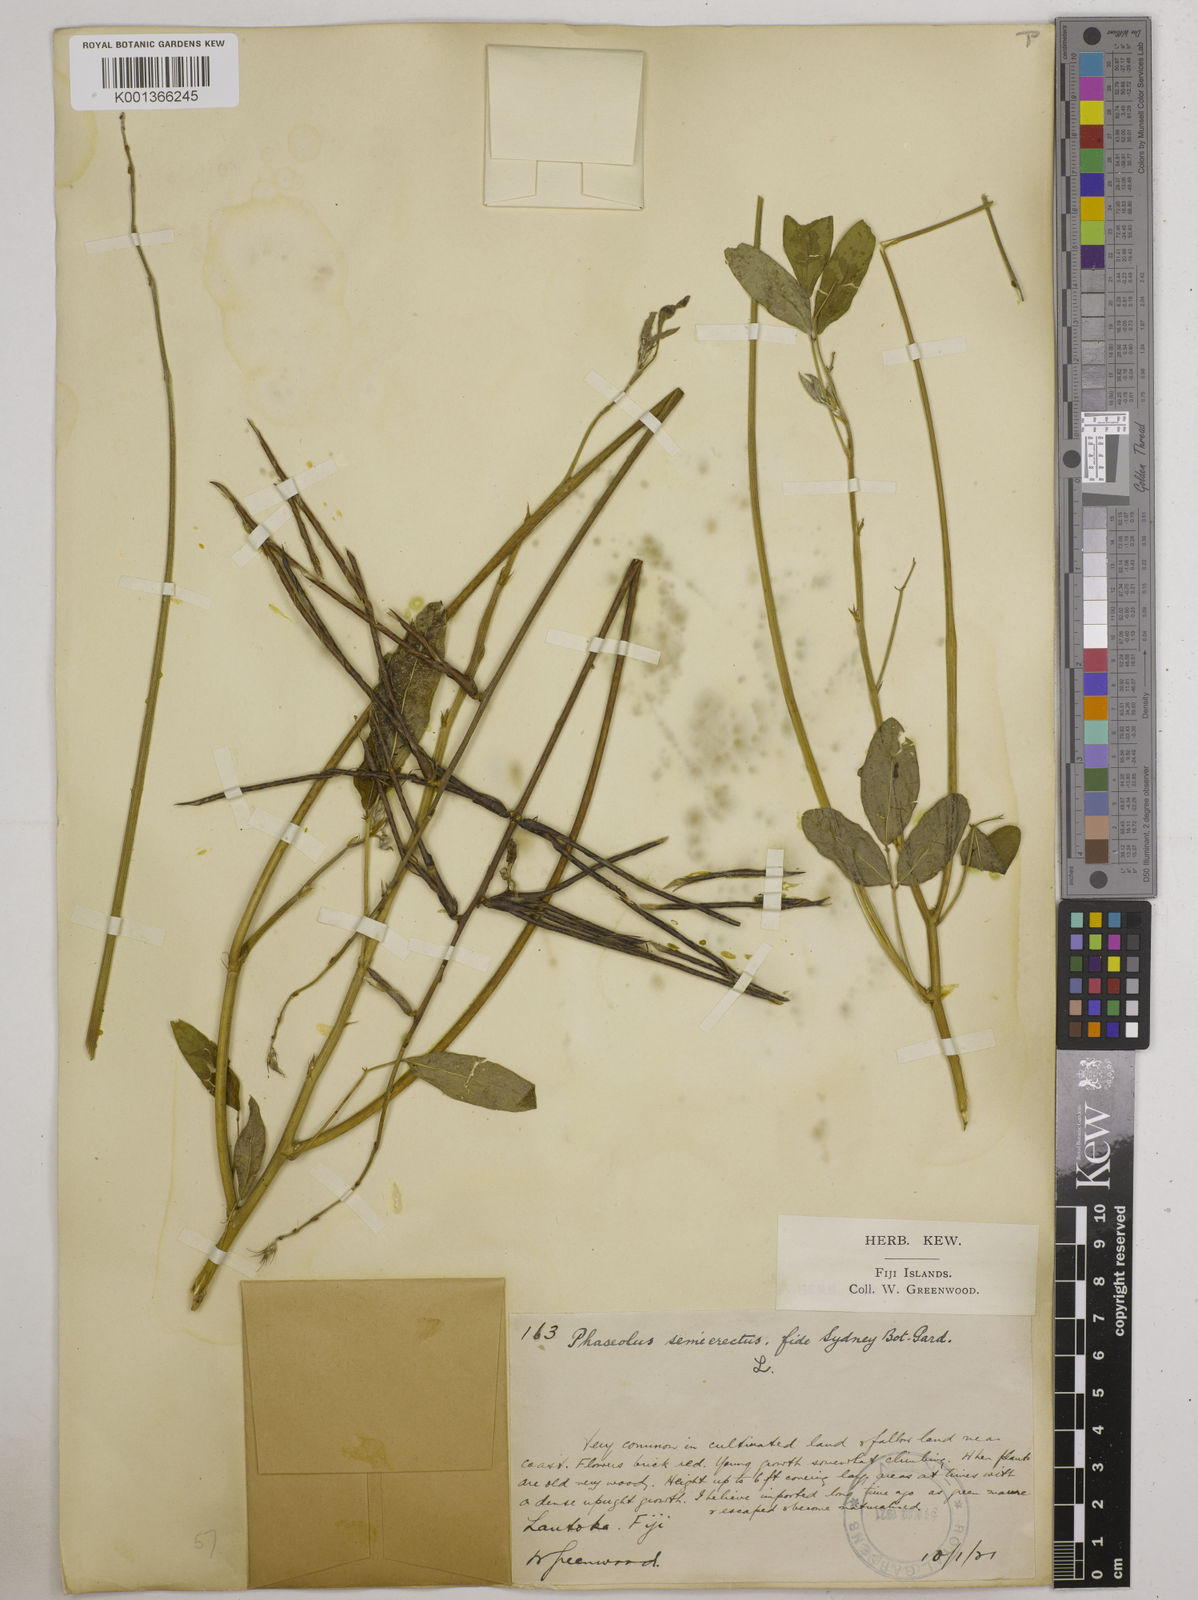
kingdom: Plantae
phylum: Tracheophyta
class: Magnoliopsida
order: Fabales
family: Fabaceae
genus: Macroptilium
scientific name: Macroptilium lathyroides
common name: Wild bushbean
